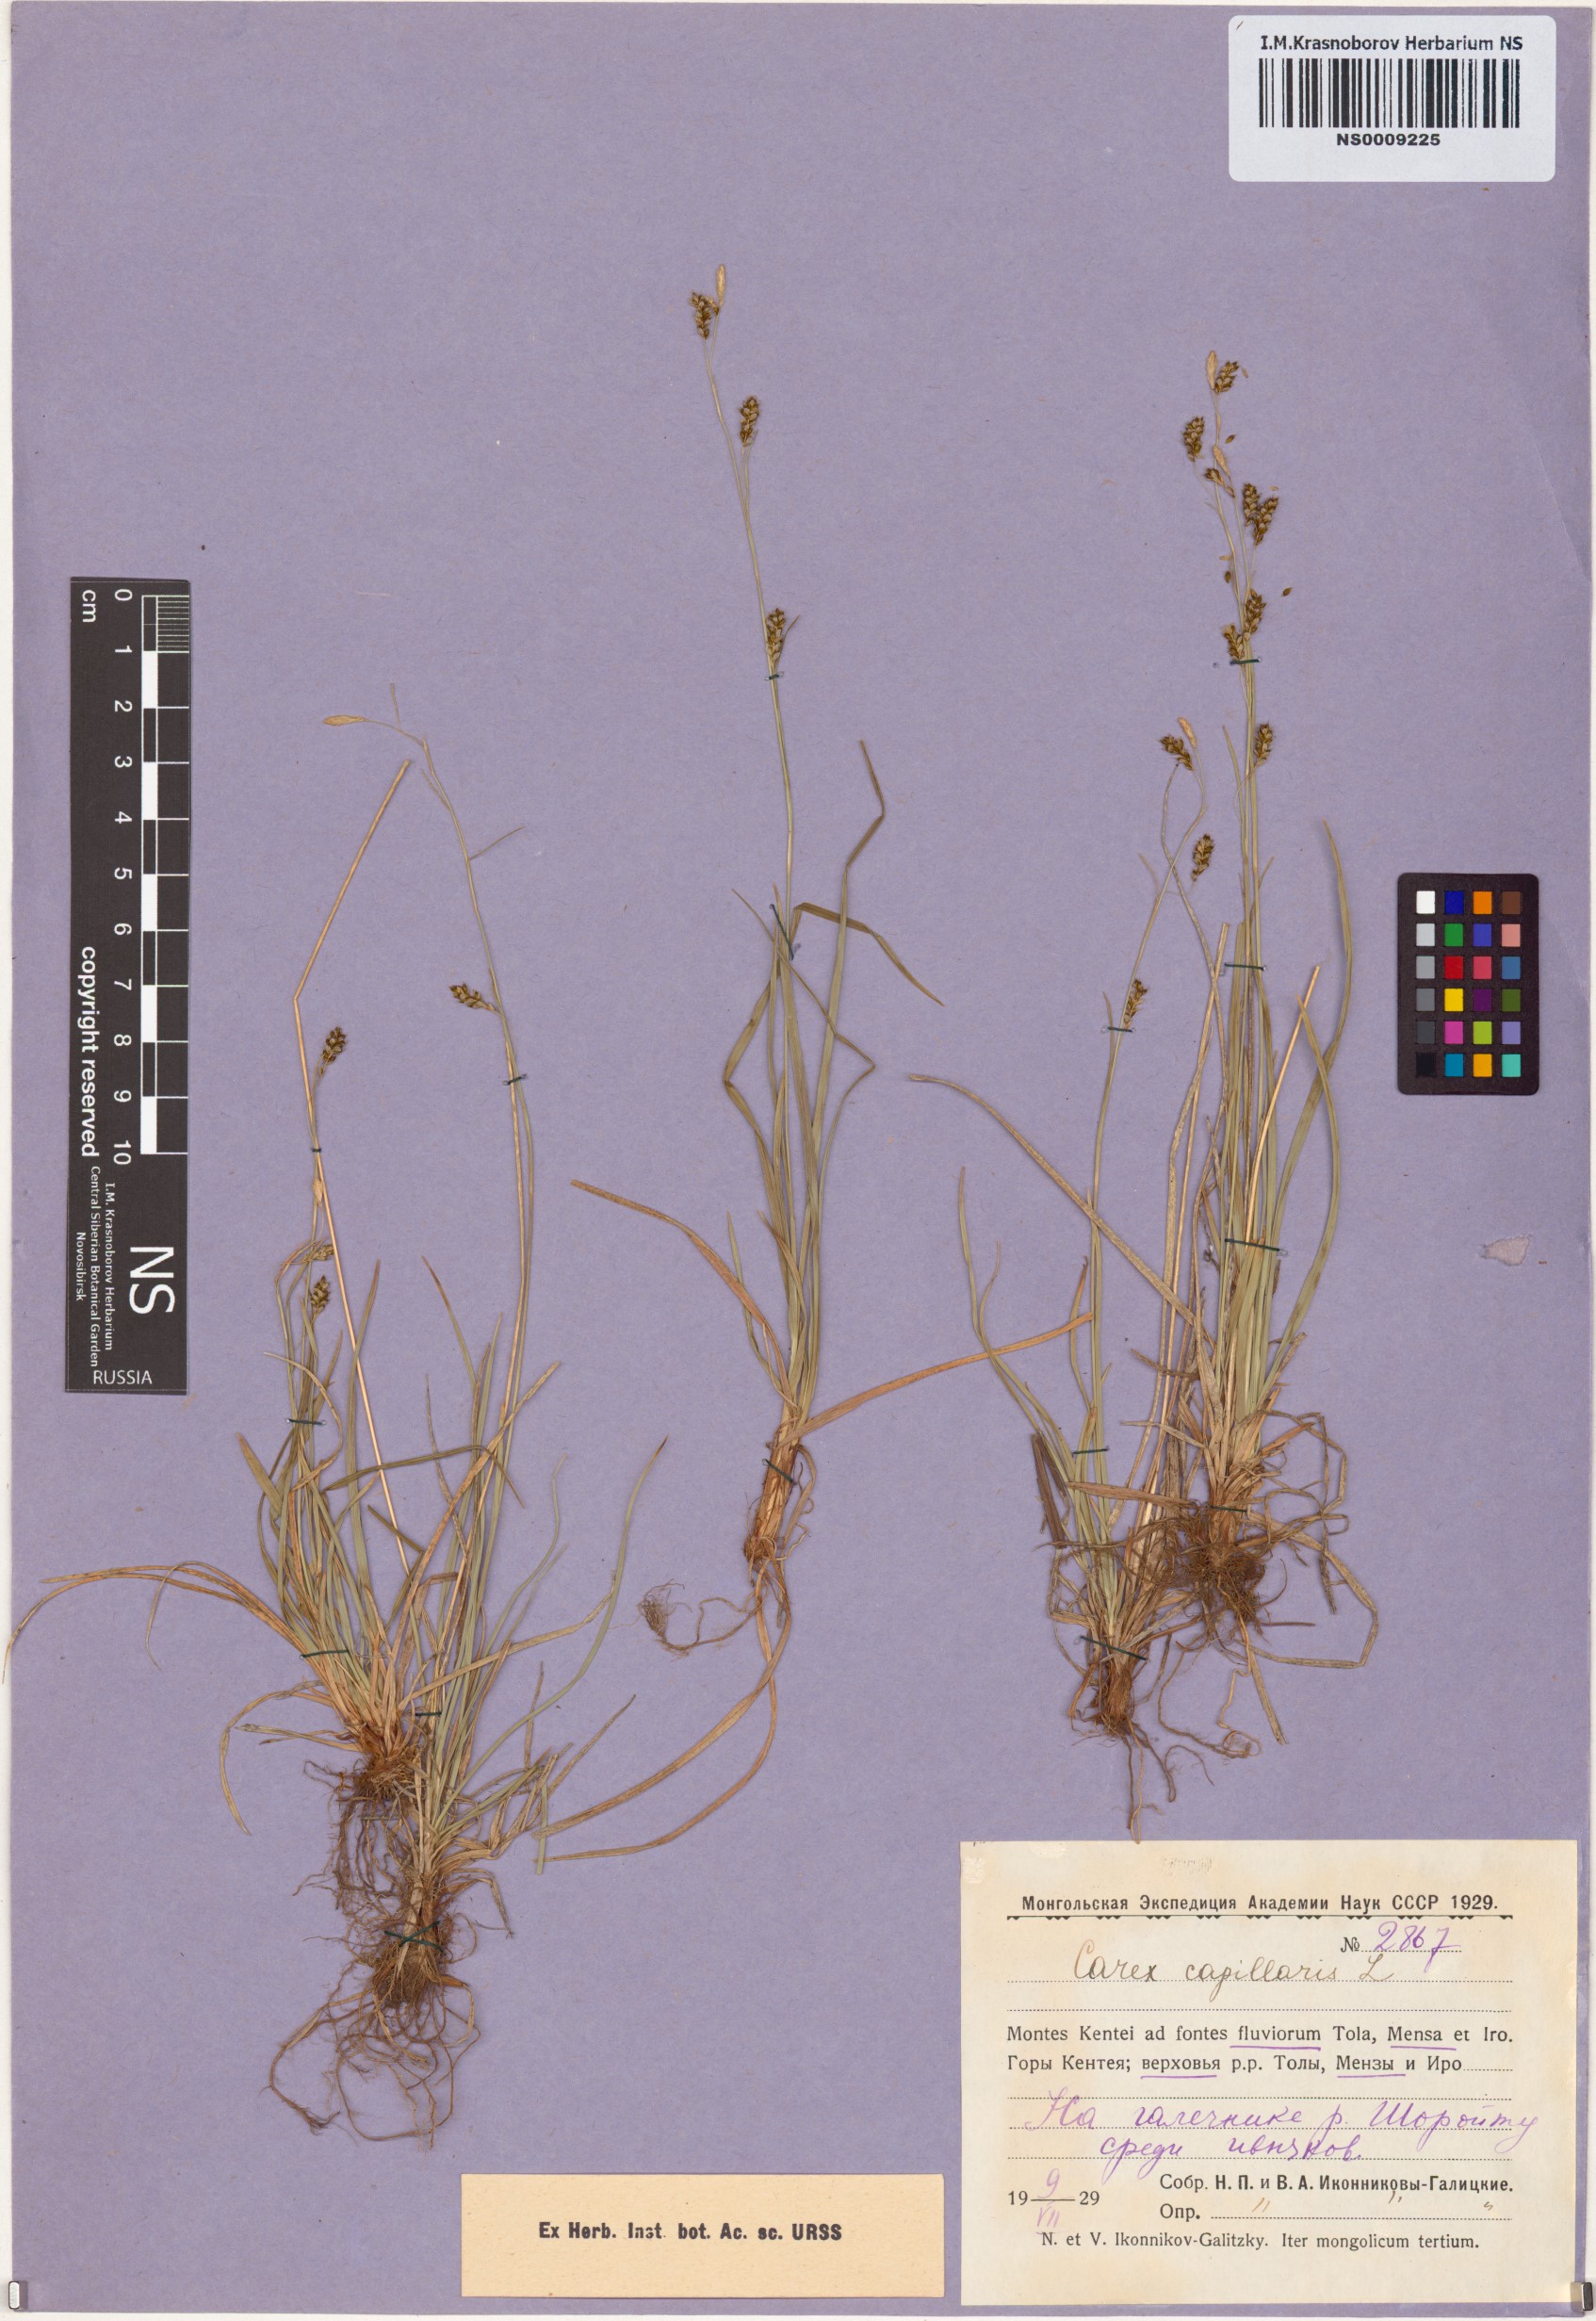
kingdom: Plantae
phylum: Tracheophyta
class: Liliopsida
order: Poales
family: Cyperaceae
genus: Carex
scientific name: Carex capillaris
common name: Hair sedge
